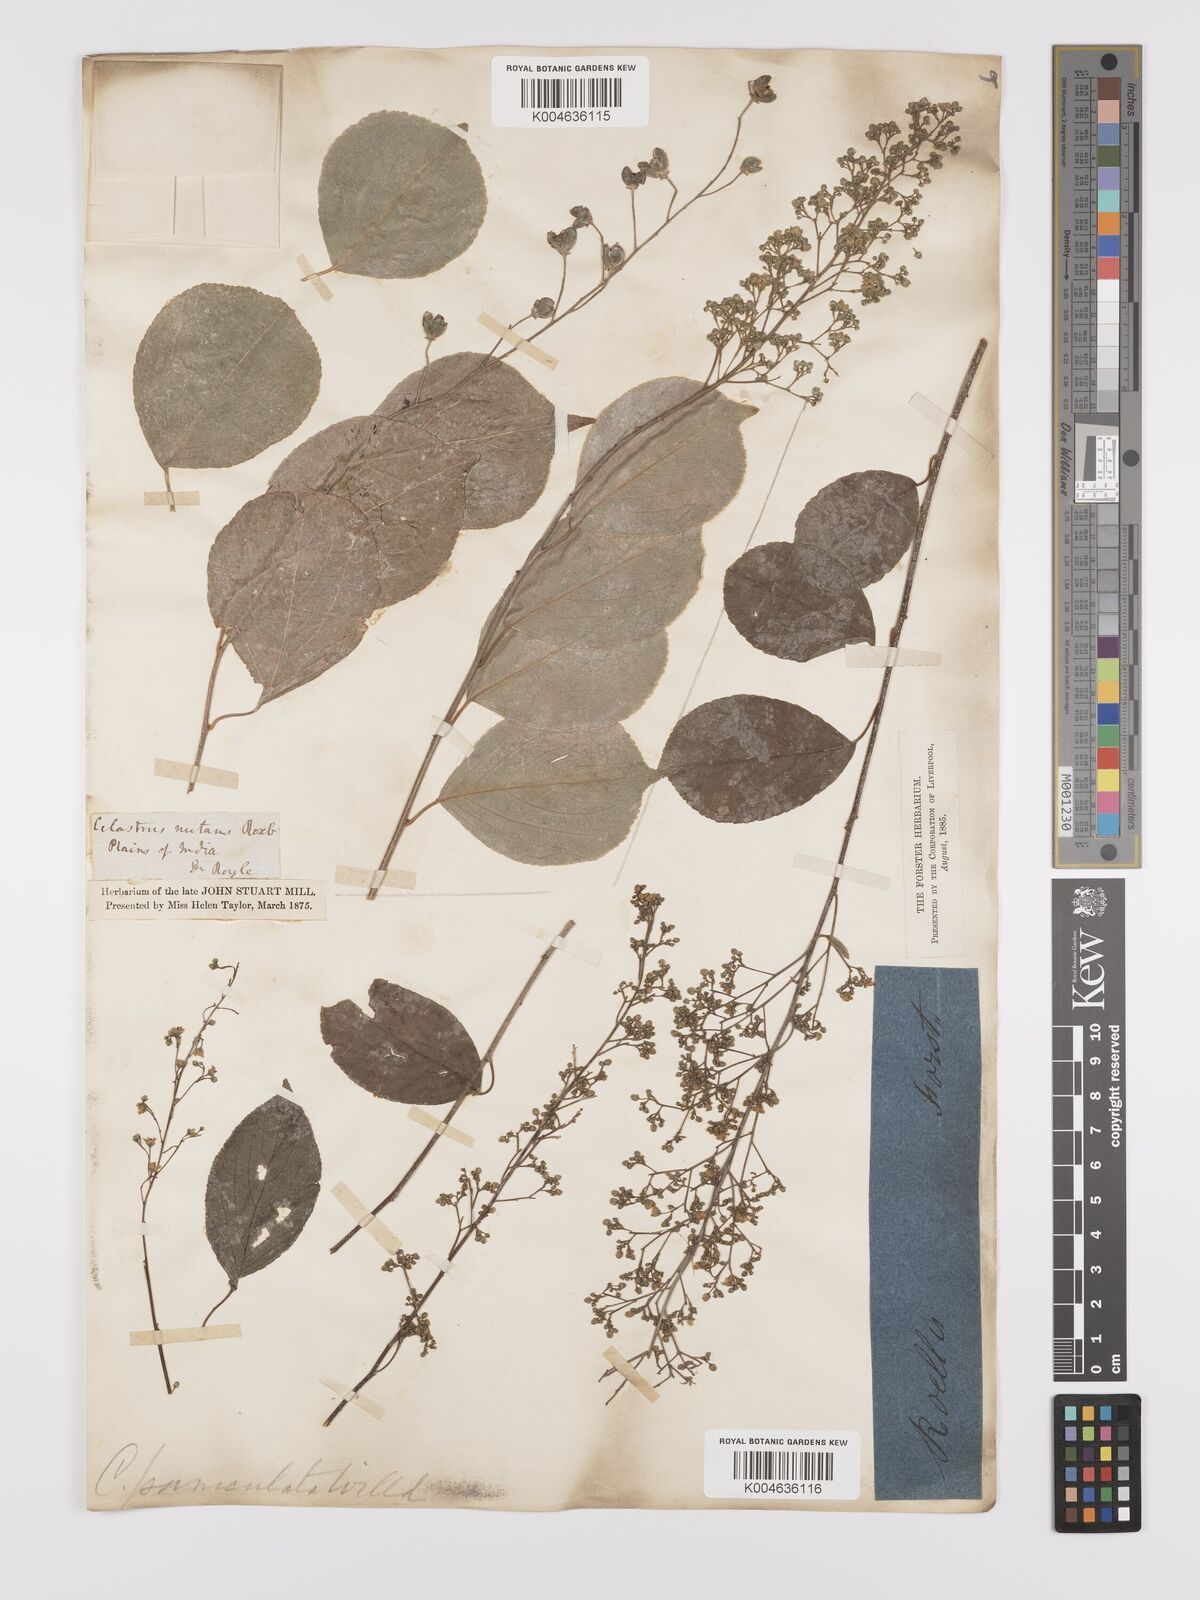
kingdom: Plantae
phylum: Tracheophyta
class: Magnoliopsida
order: Celastrales
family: Celastraceae
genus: Celastrus
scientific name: Celastrus
